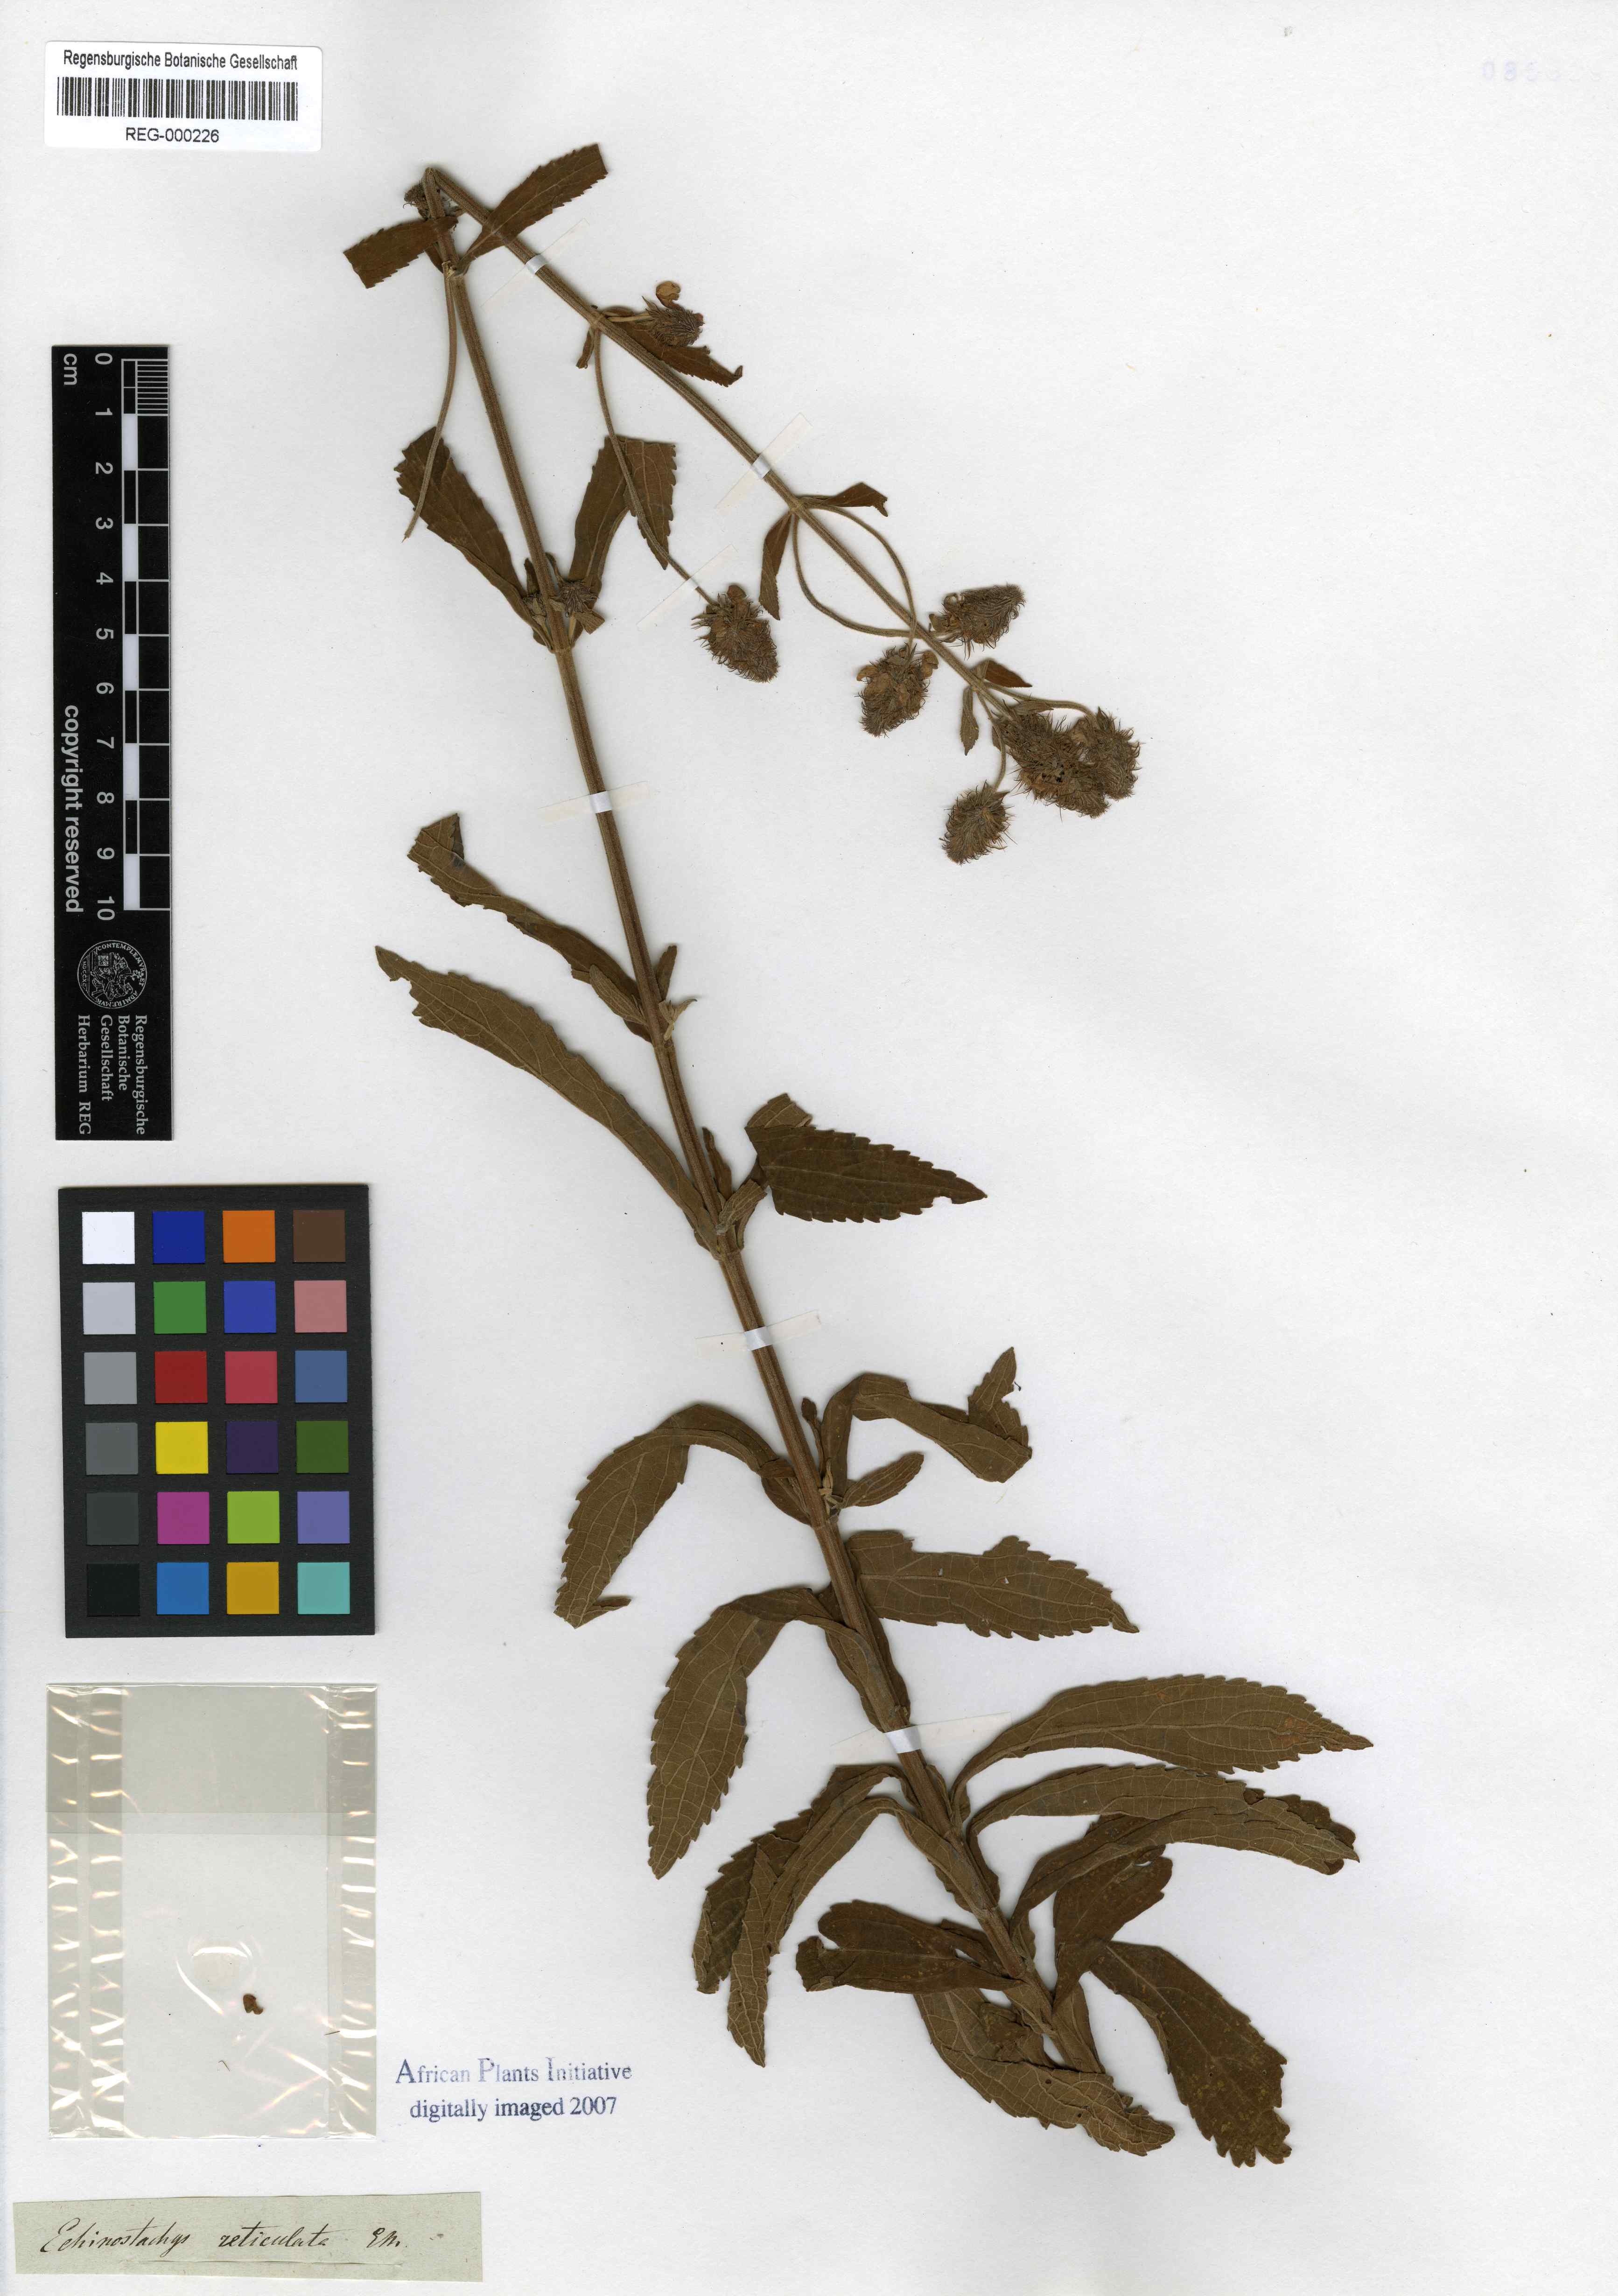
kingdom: Plantae
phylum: Tracheophyta
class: Magnoliopsida
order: Lamiales
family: Lamiaceae
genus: Coleus
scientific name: Coleus kirkii
